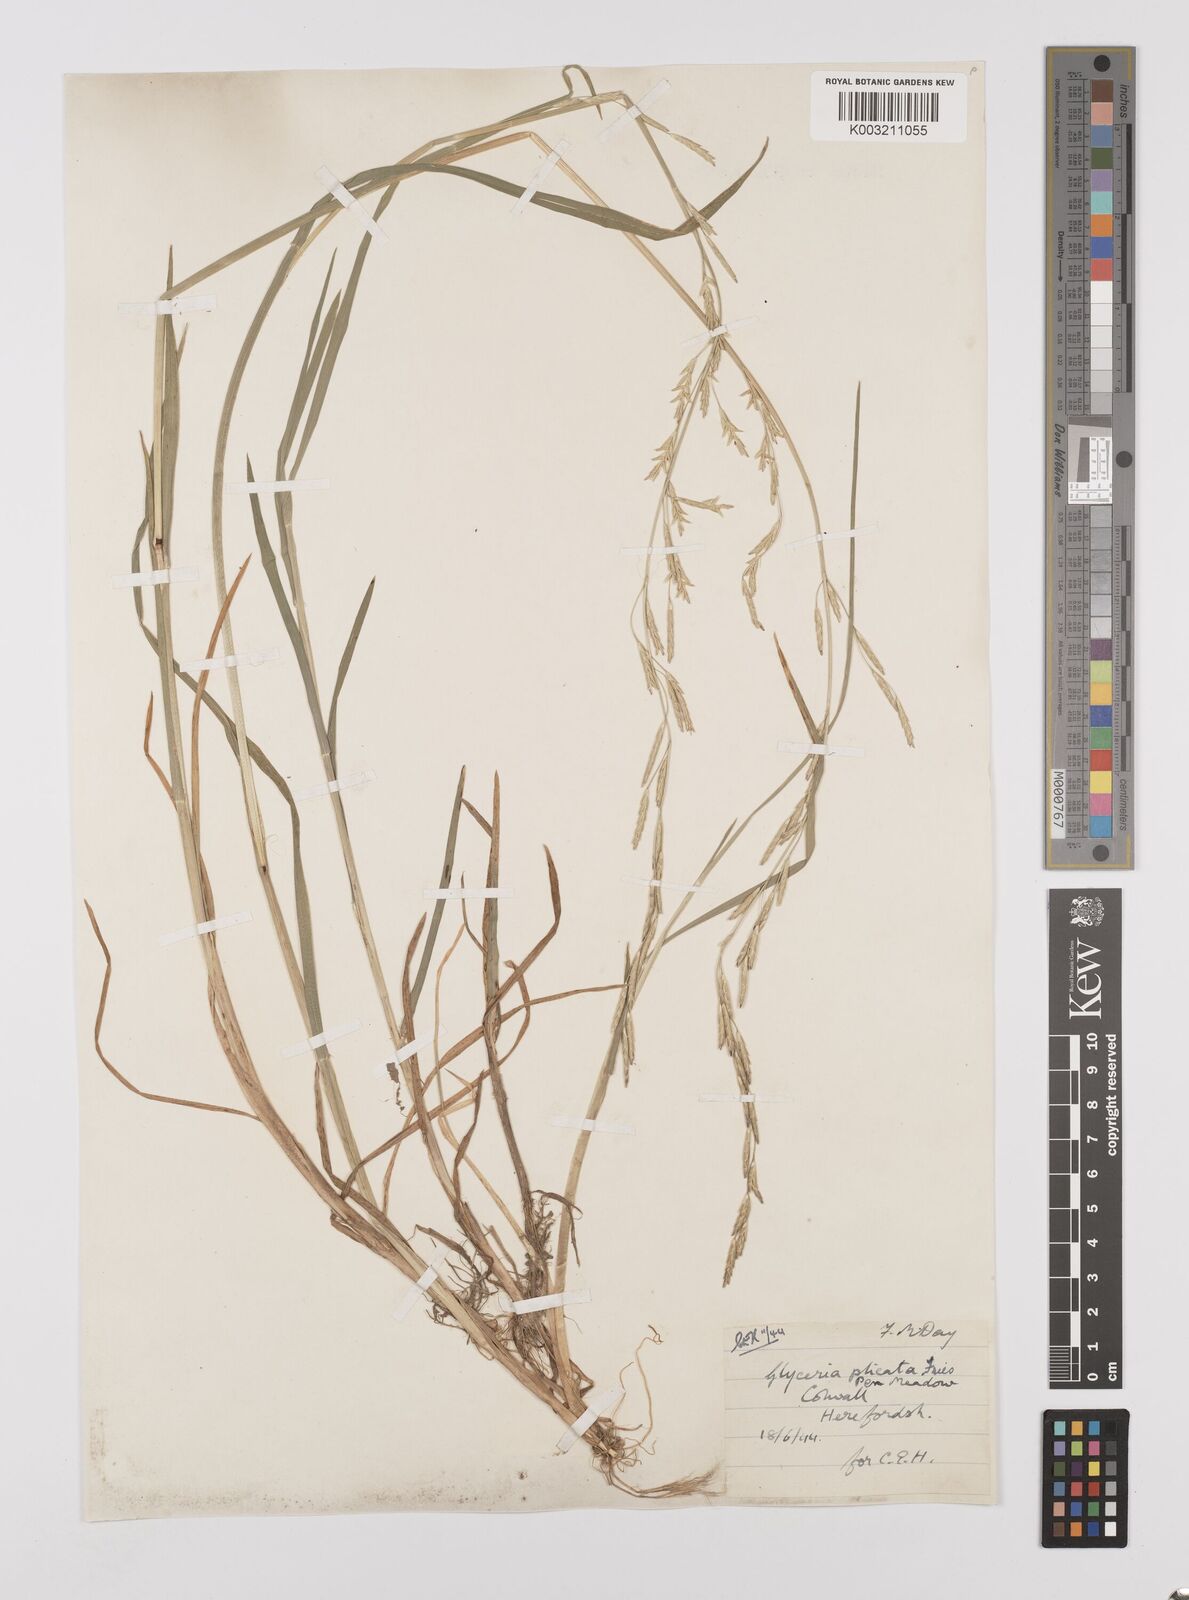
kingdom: Plantae
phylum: Tracheophyta
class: Liliopsida
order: Poales
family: Poaceae
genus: Glyceria
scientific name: Glyceria notata
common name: Plicate sweet-grass
